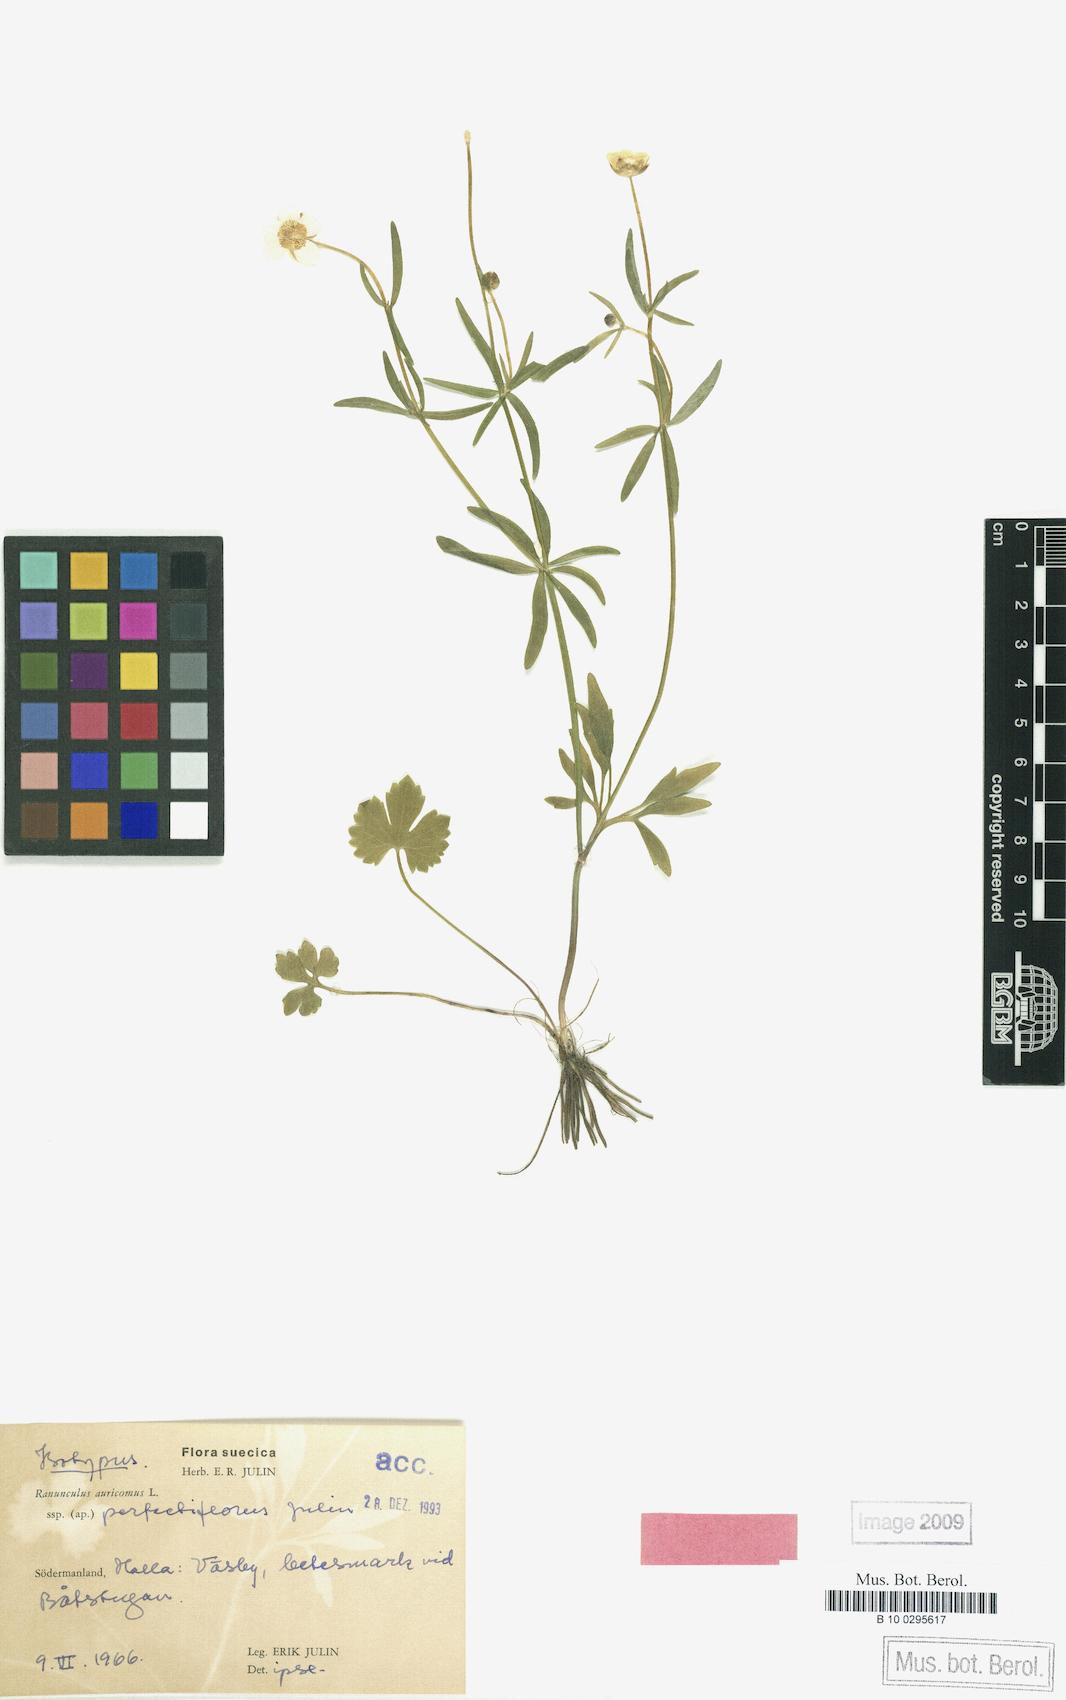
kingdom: Plantae
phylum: Tracheophyta
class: Magnoliopsida
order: Ranunculales
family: Ranunculaceae
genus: Ranunculus
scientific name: Ranunculus perfectiflorus
